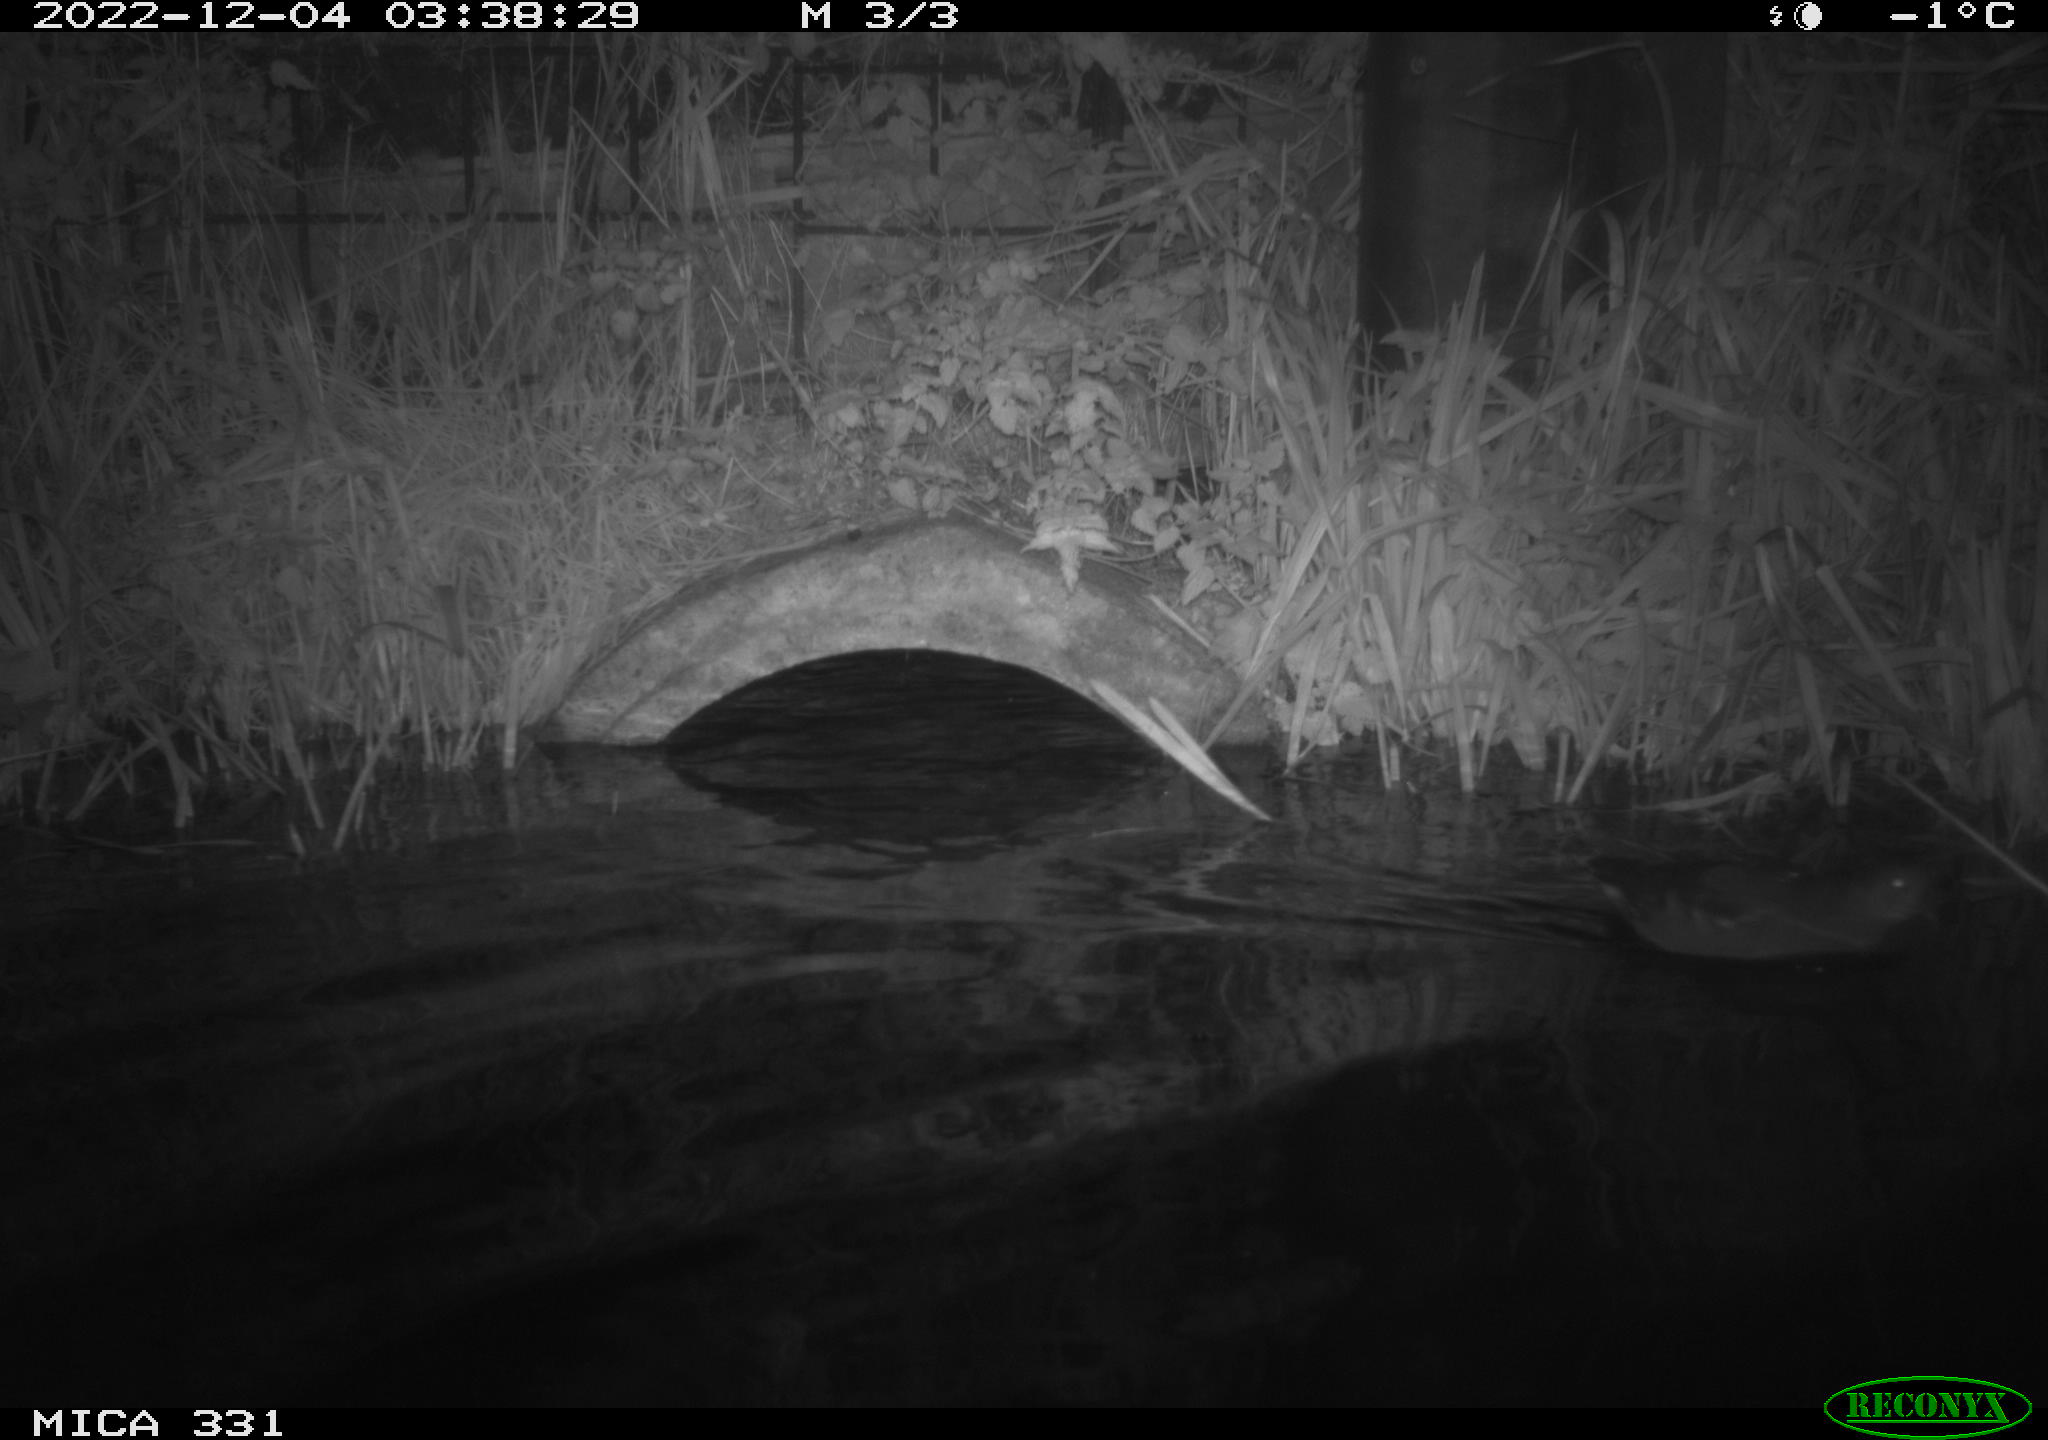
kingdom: Animalia
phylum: Chordata
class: Aves
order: Gruiformes
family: Rallidae
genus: Gallinula
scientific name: Gallinula chloropus
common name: Common moorhen
